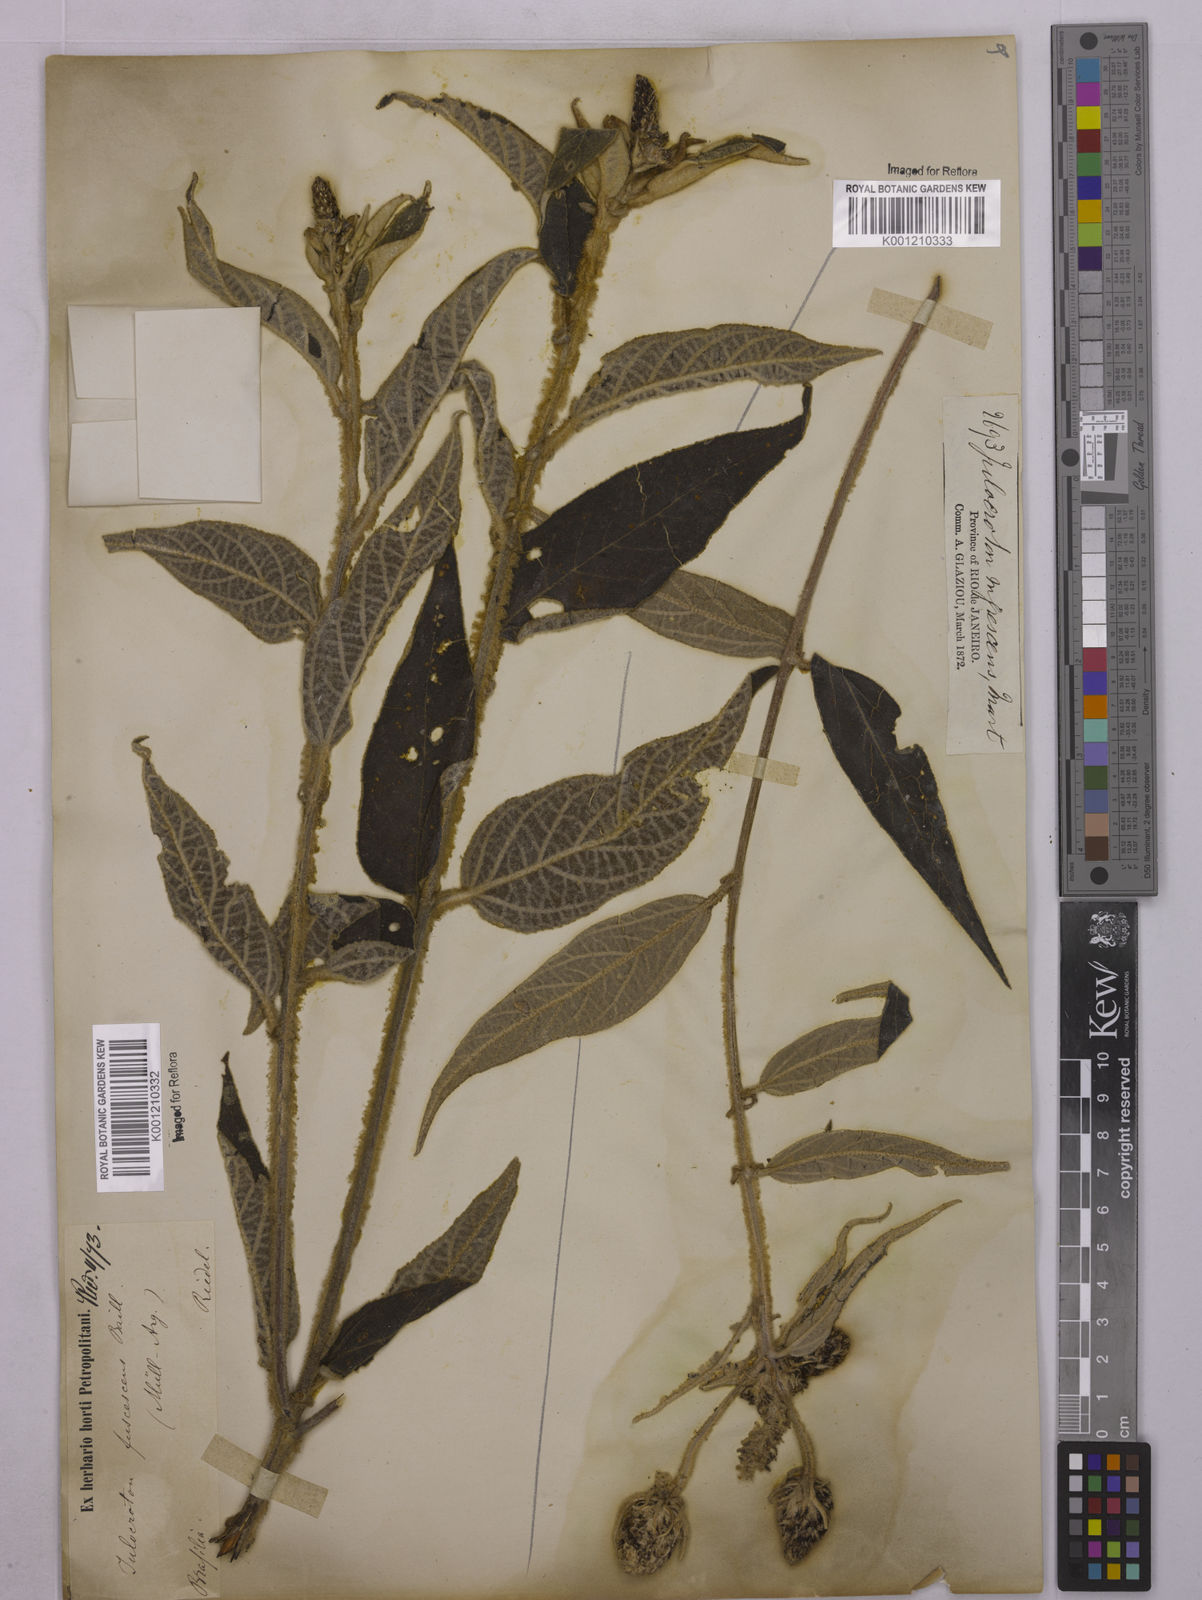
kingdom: Plantae
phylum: Tracheophyta
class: Magnoliopsida
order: Malpighiales
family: Euphorbiaceae
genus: Croton
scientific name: Croton gnaphaloides
